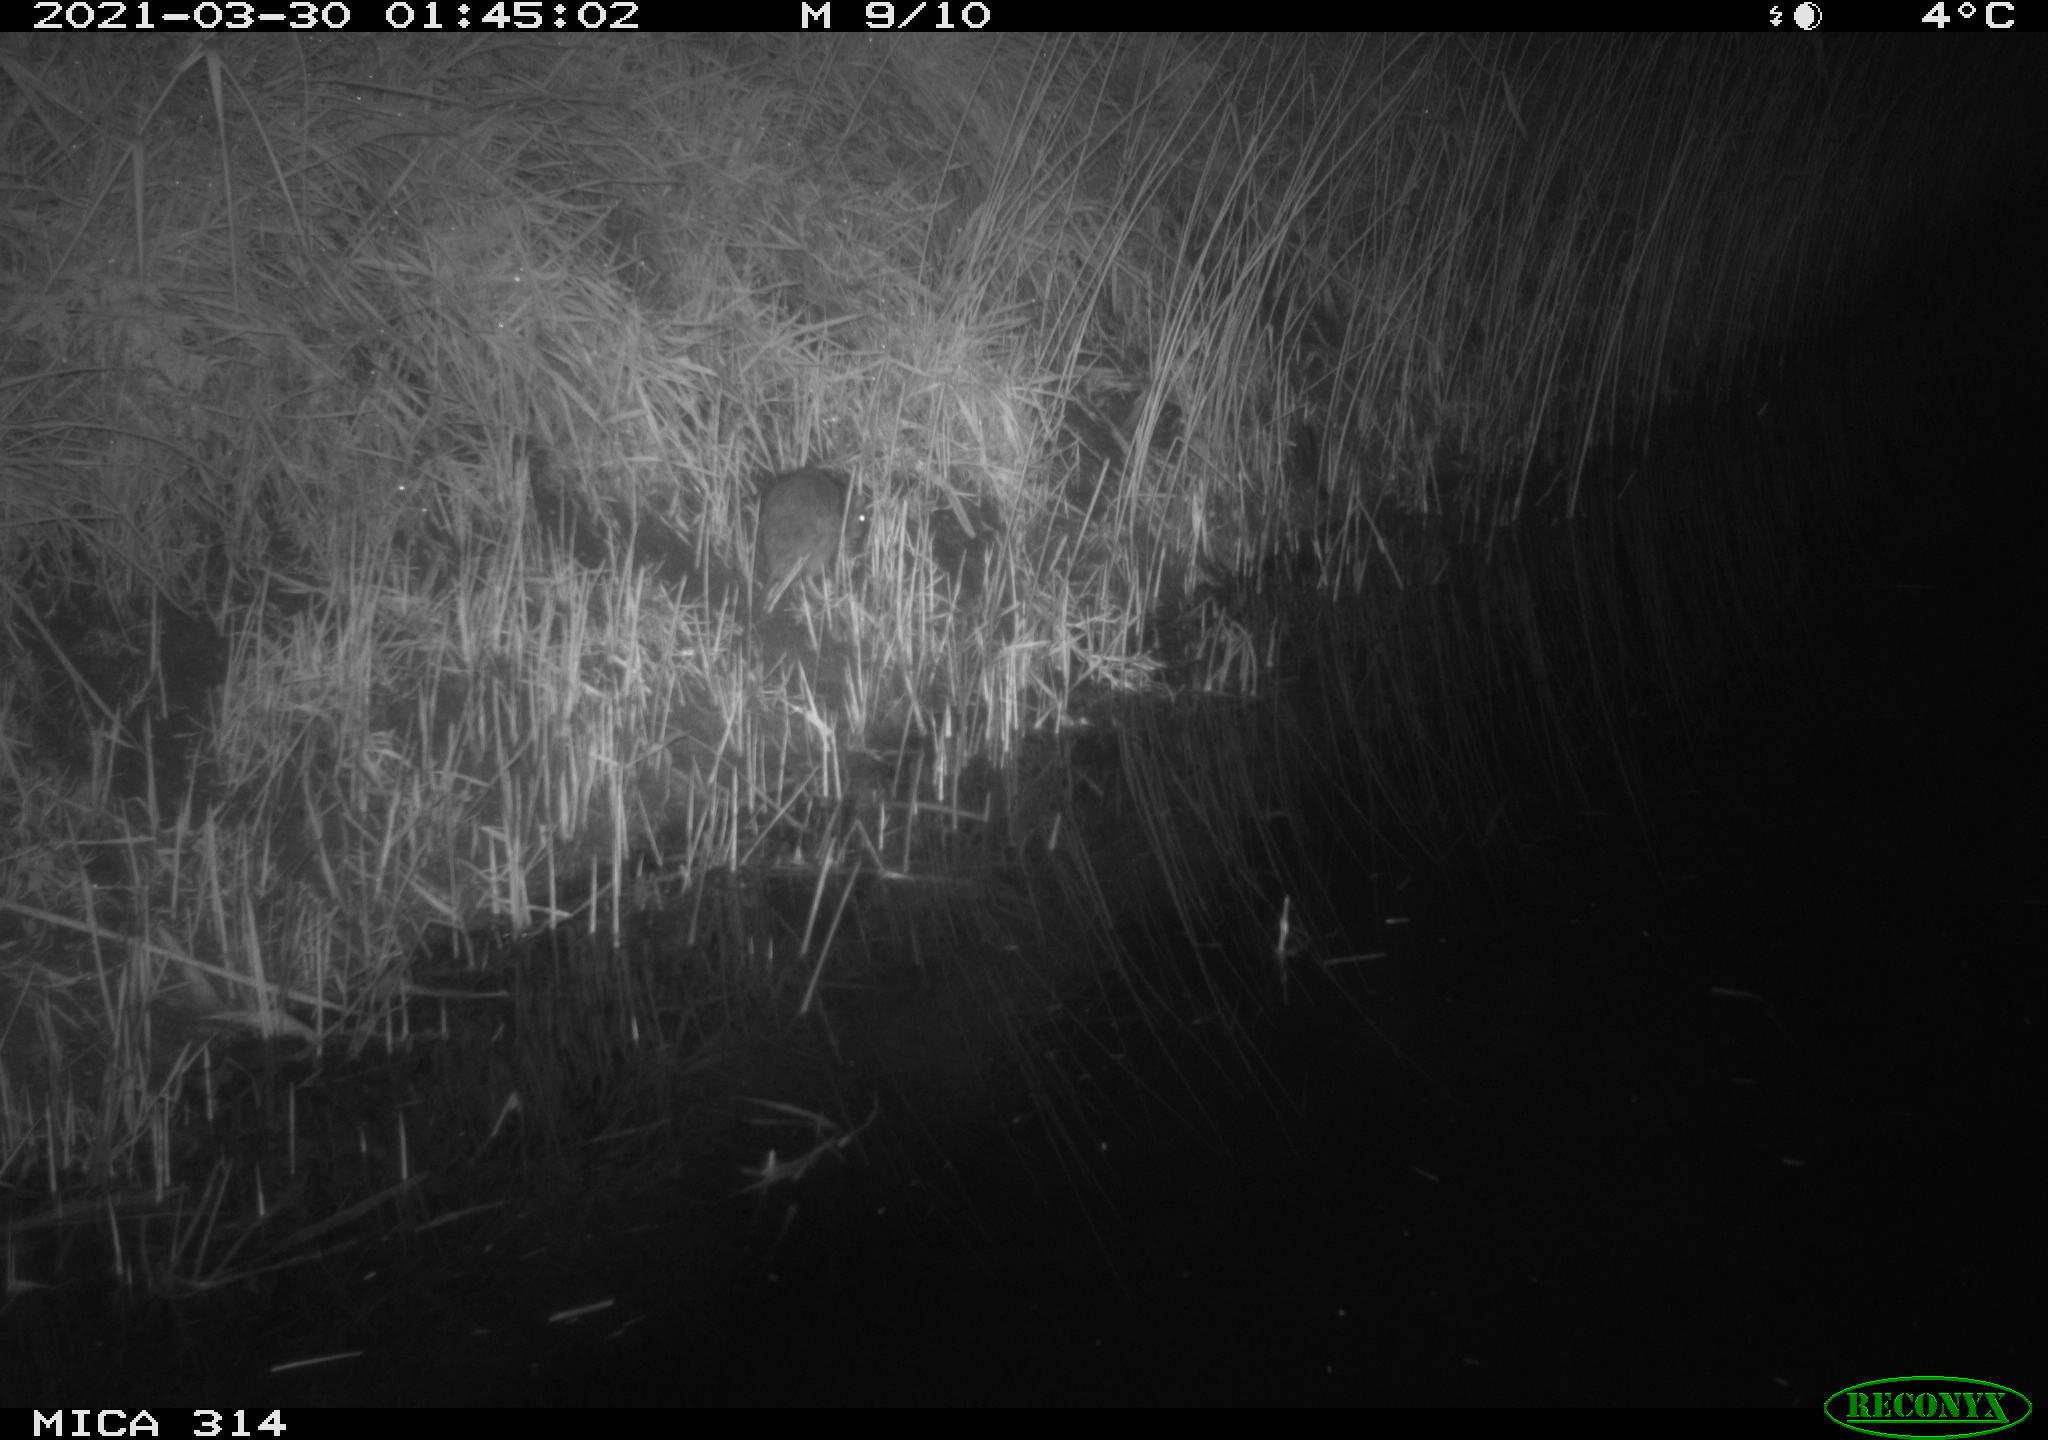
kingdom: Animalia
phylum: Chordata
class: Mammalia
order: Rodentia
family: Muridae
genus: Rattus
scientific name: Rattus norvegicus
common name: Brown rat
